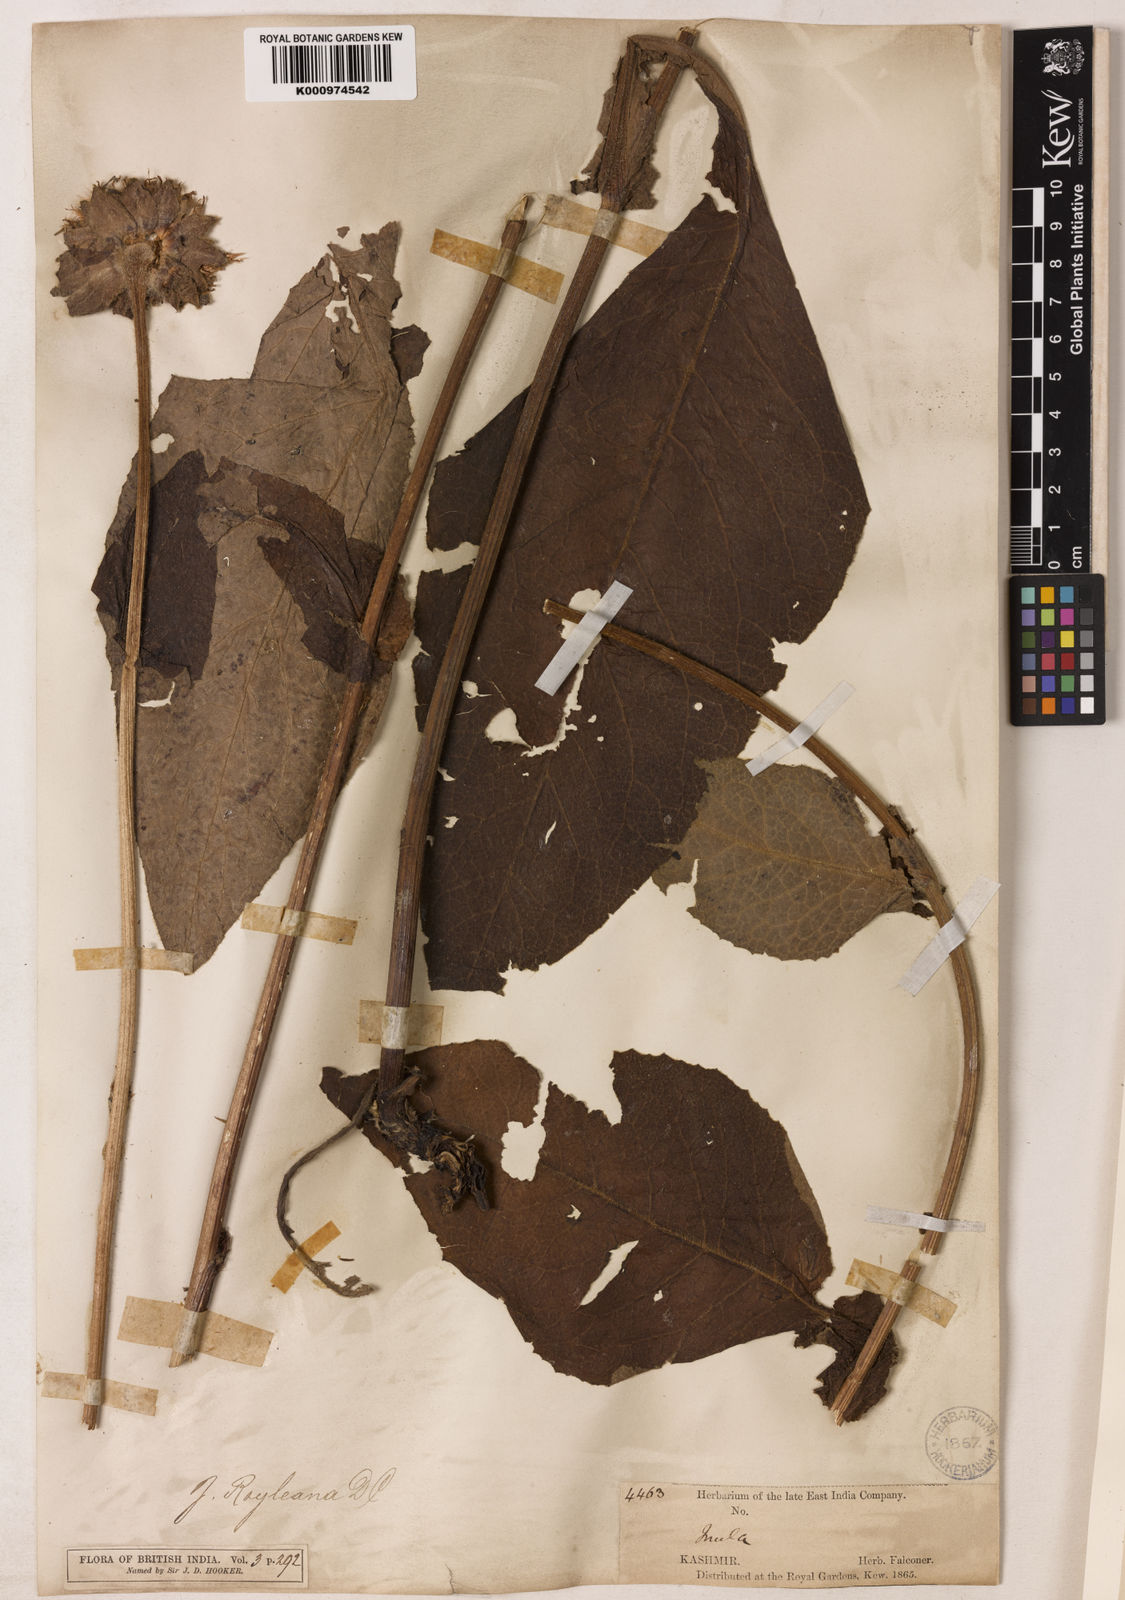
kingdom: Plantae
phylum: Tracheophyta
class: Magnoliopsida
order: Asterales
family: Asteraceae
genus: Inula
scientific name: Inula royleana
